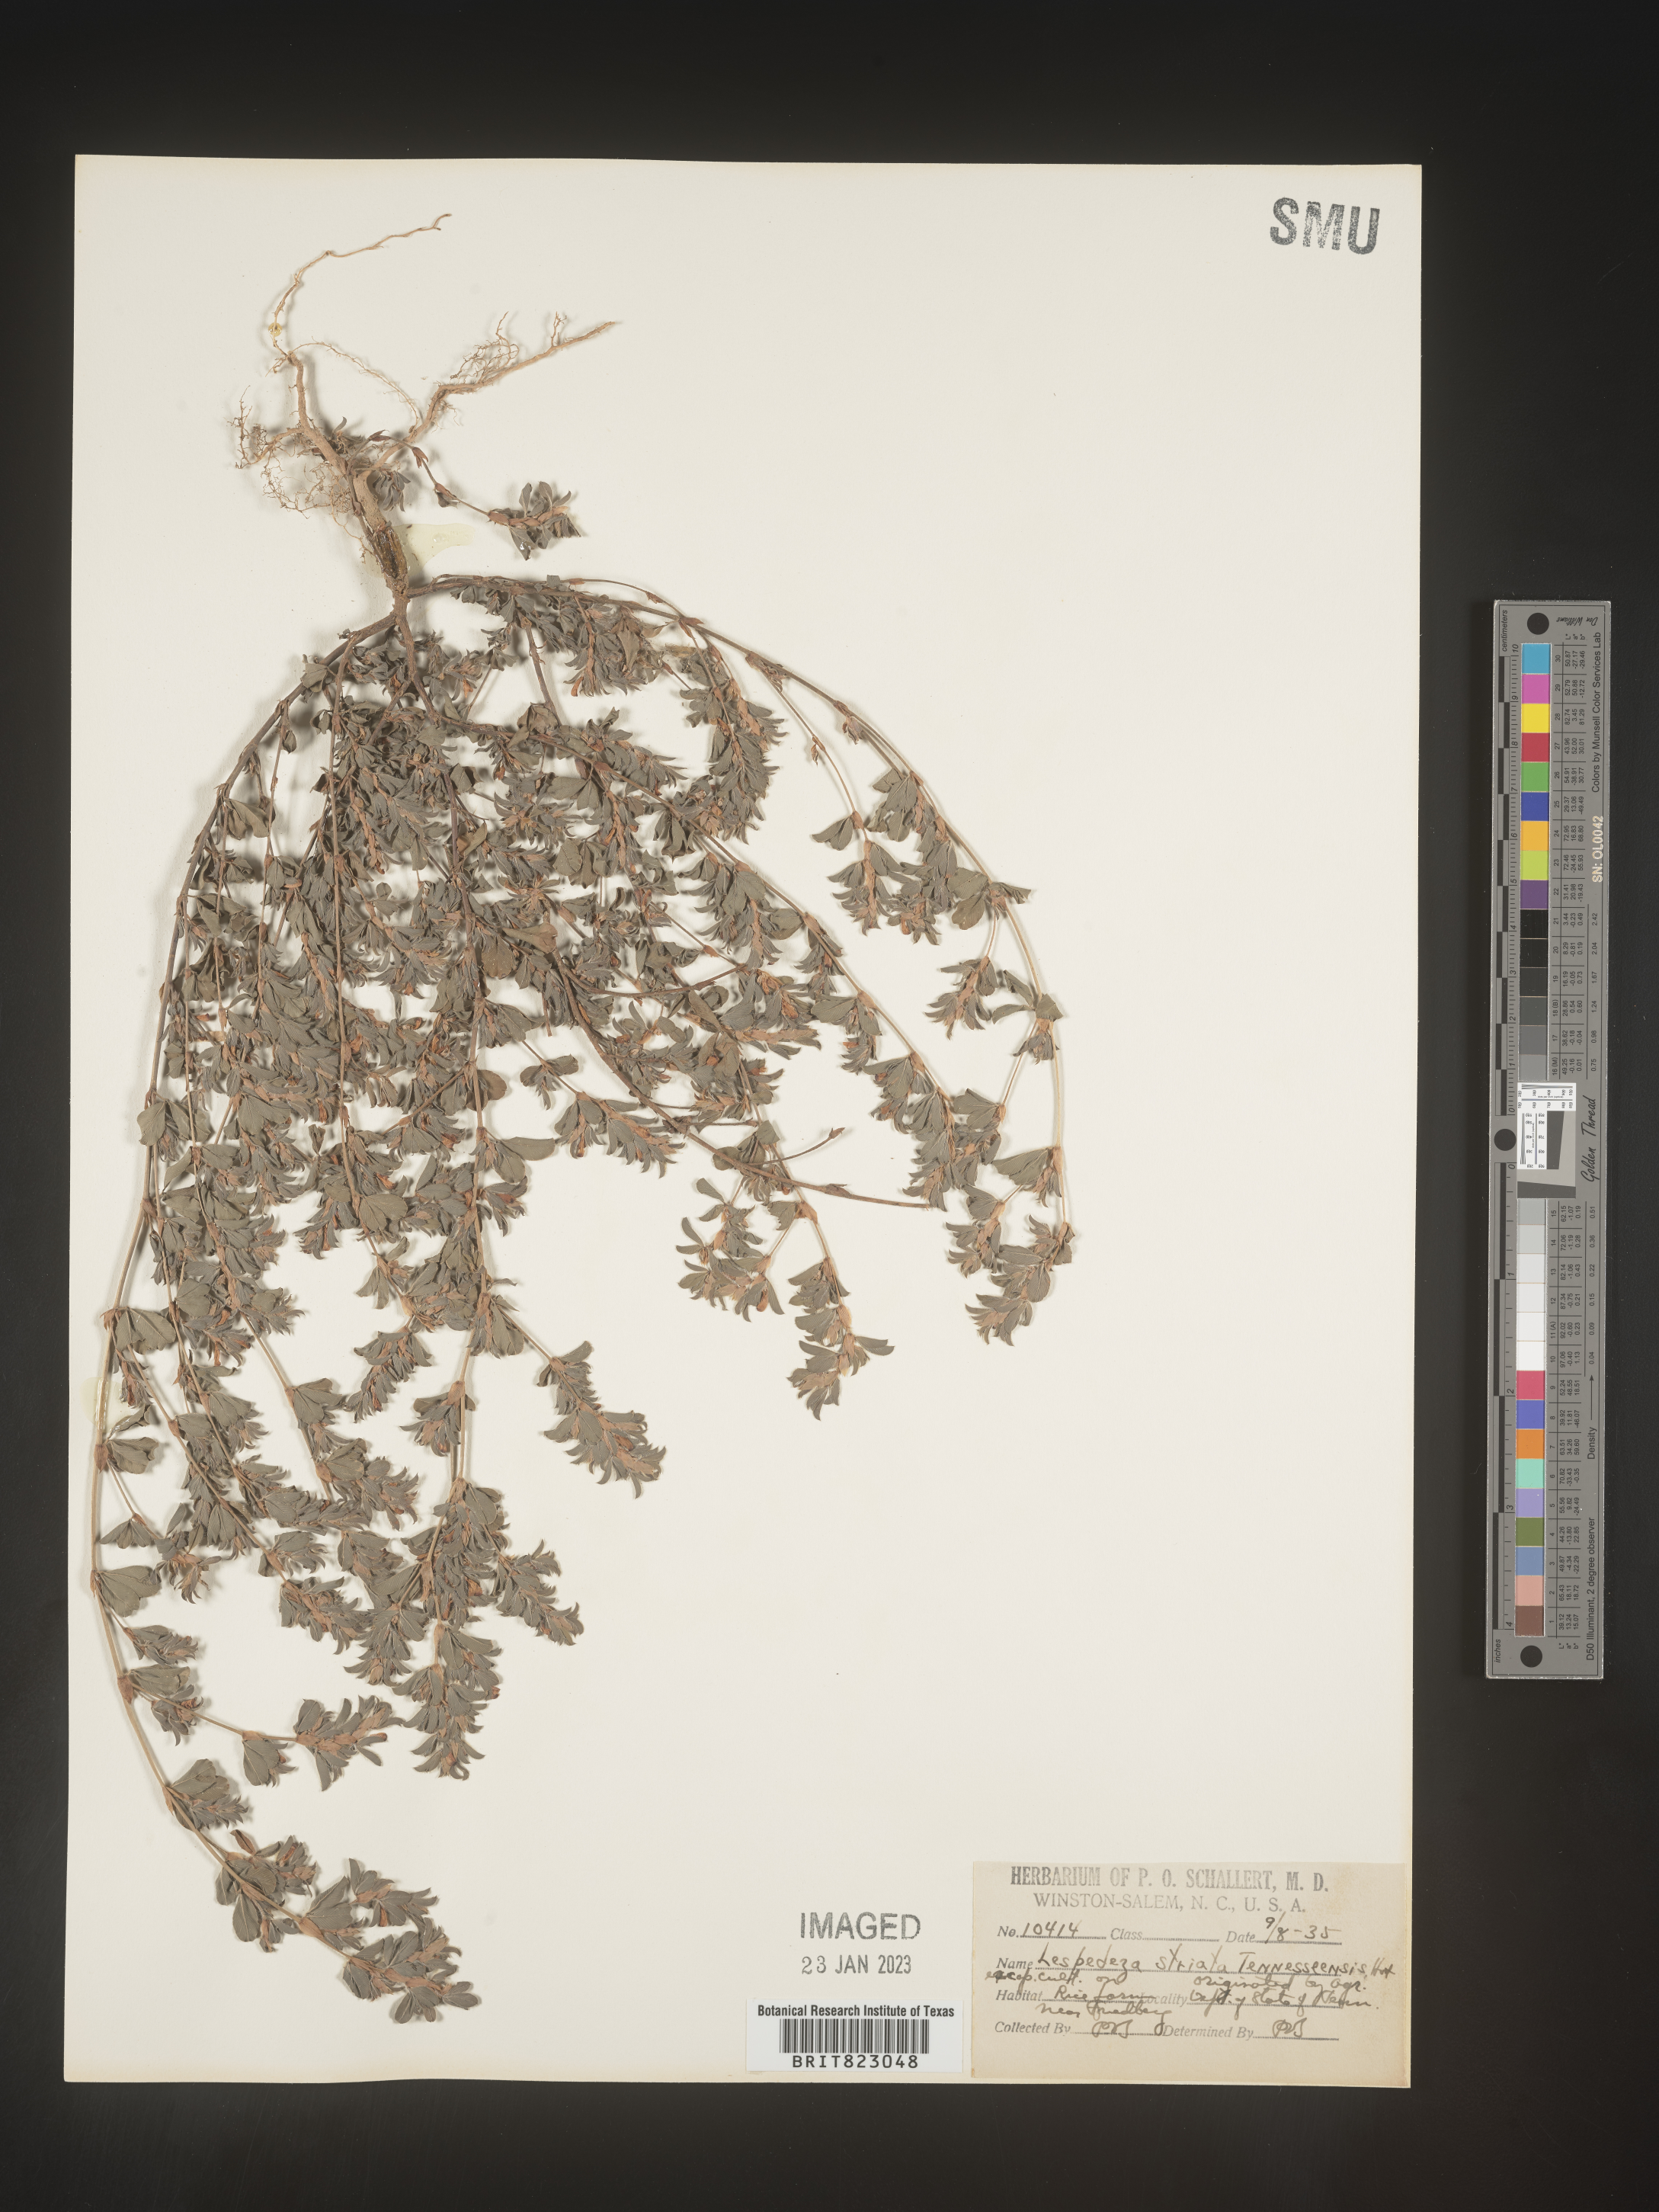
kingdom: Plantae
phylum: Tracheophyta
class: Magnoliopsida
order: Fabales
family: Fabaceae
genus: Kummerowia
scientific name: Kummerowia striata
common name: Japanese clover
